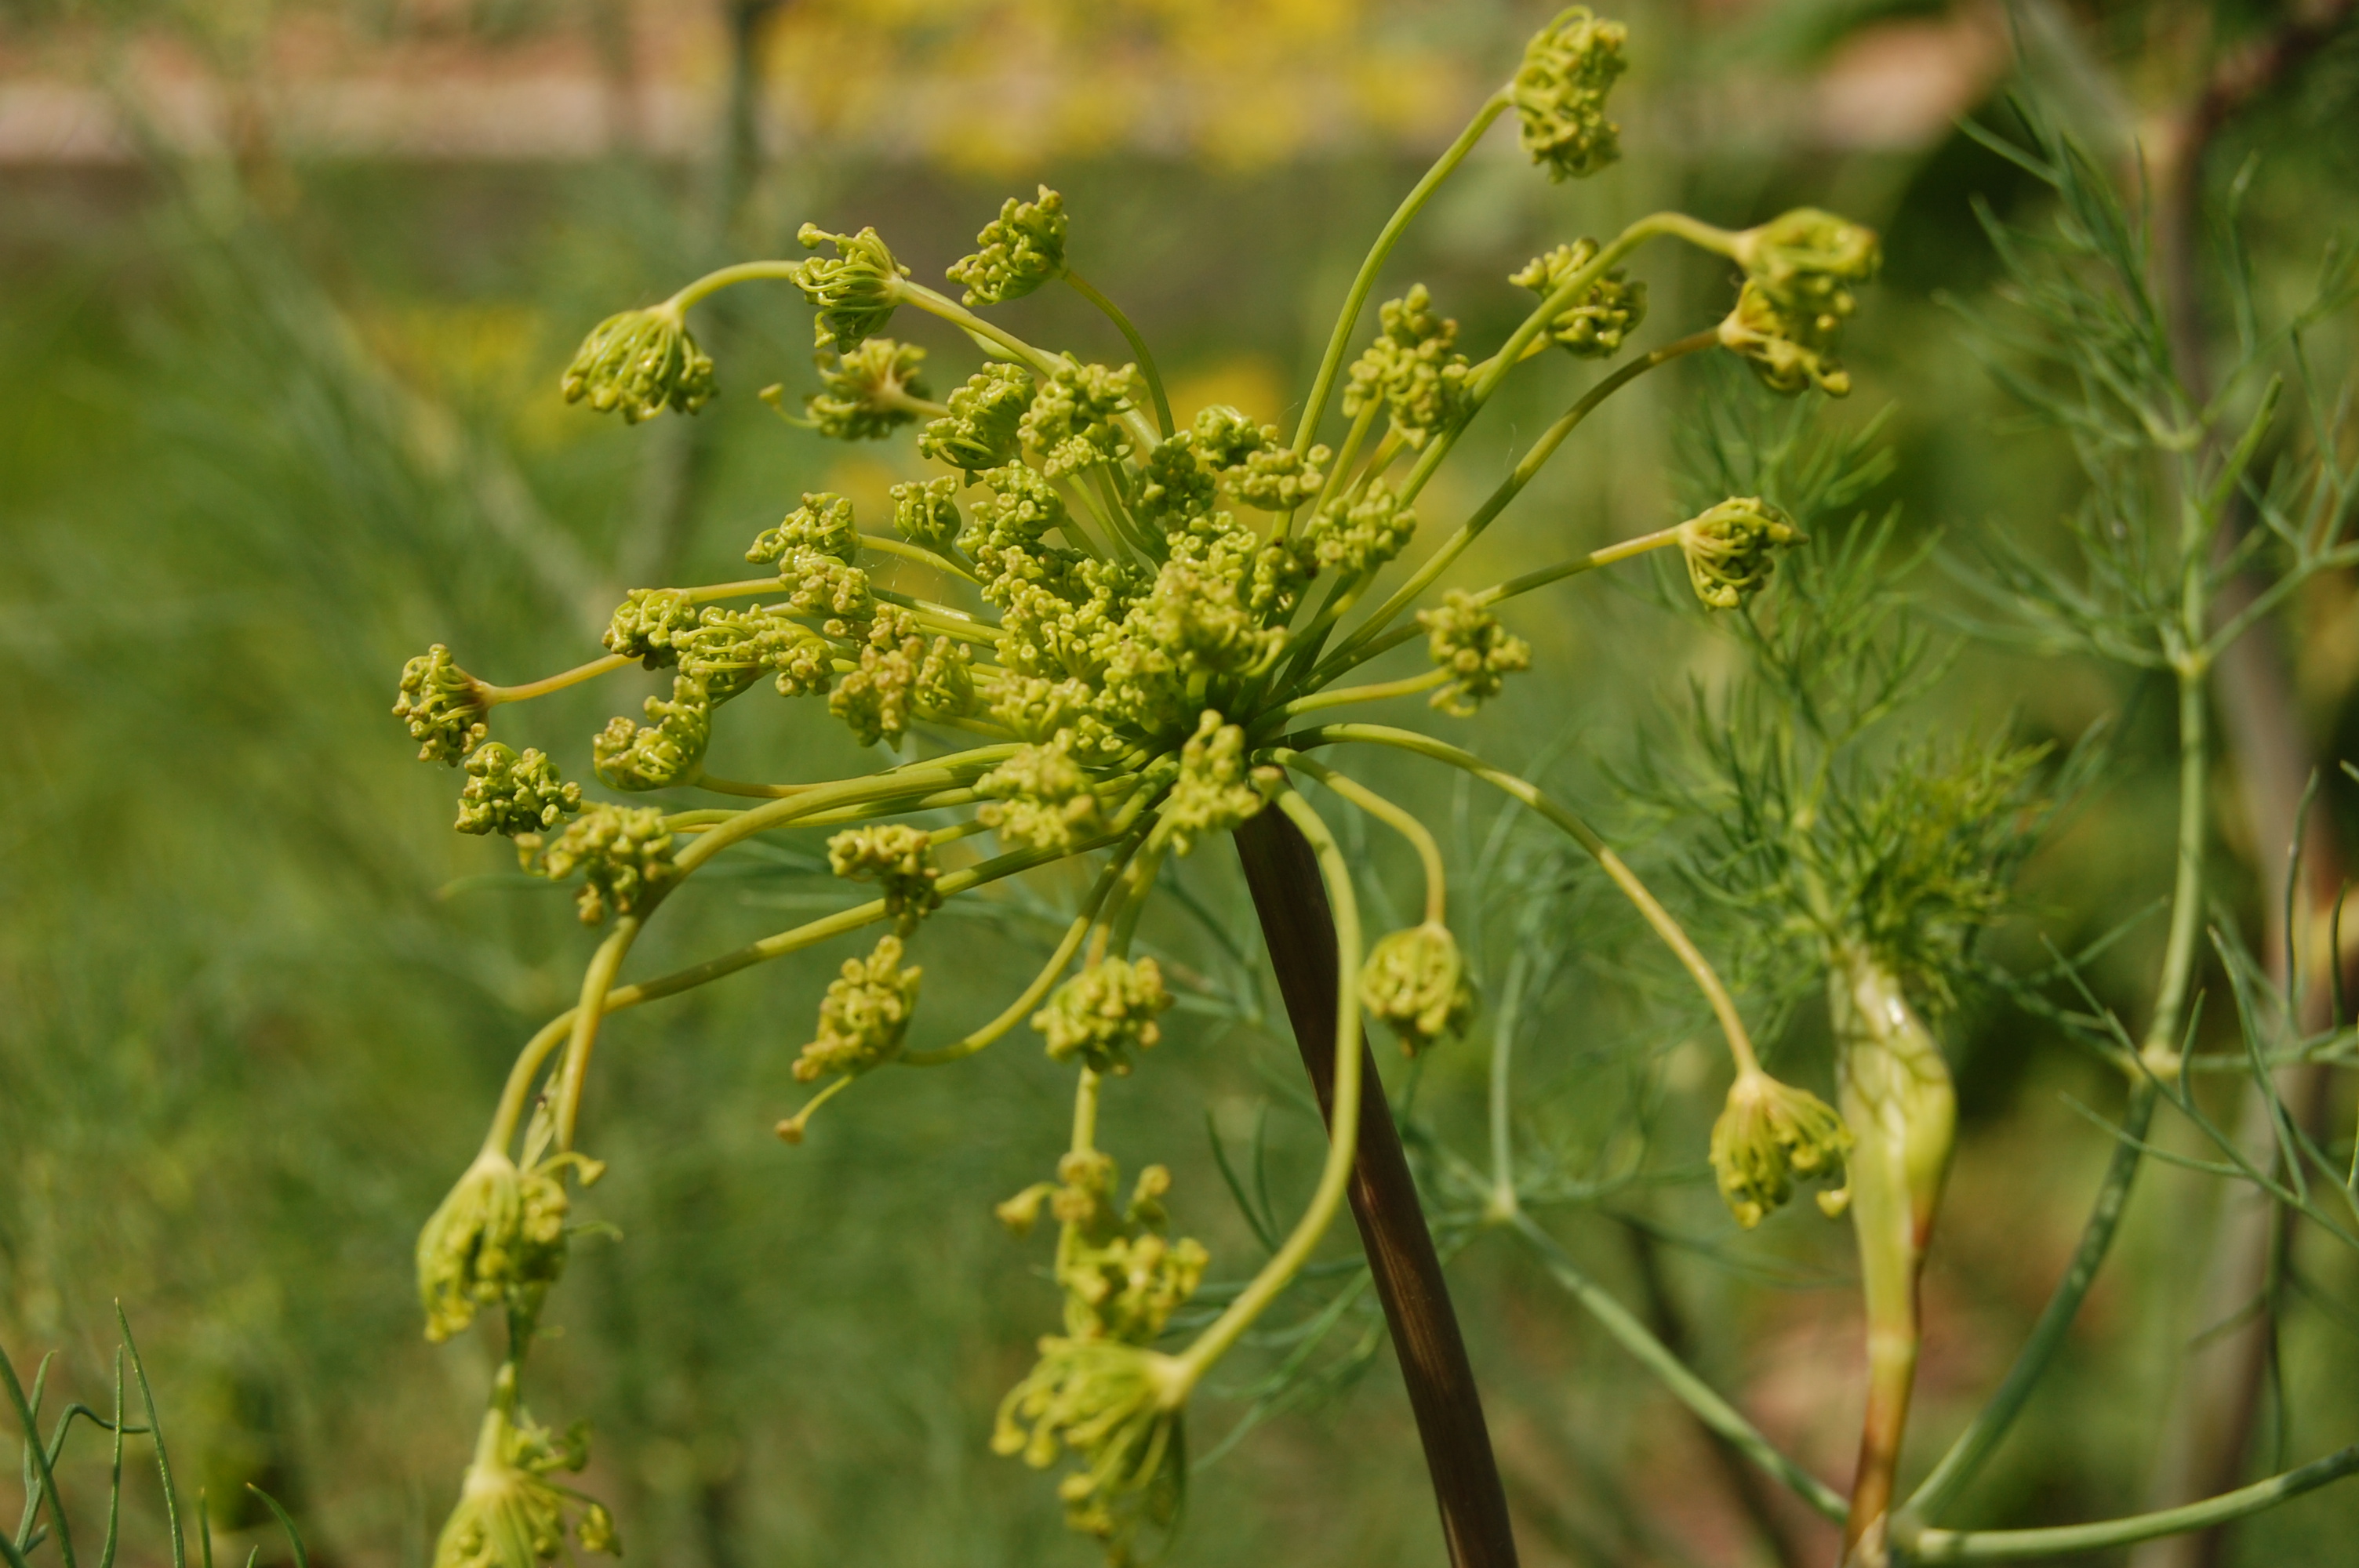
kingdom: Plantae
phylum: Tracheophyta
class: Magnoliopsida
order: Apiales
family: Apiaceae
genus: Anethum
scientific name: Anethum graveolens
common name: Dill
